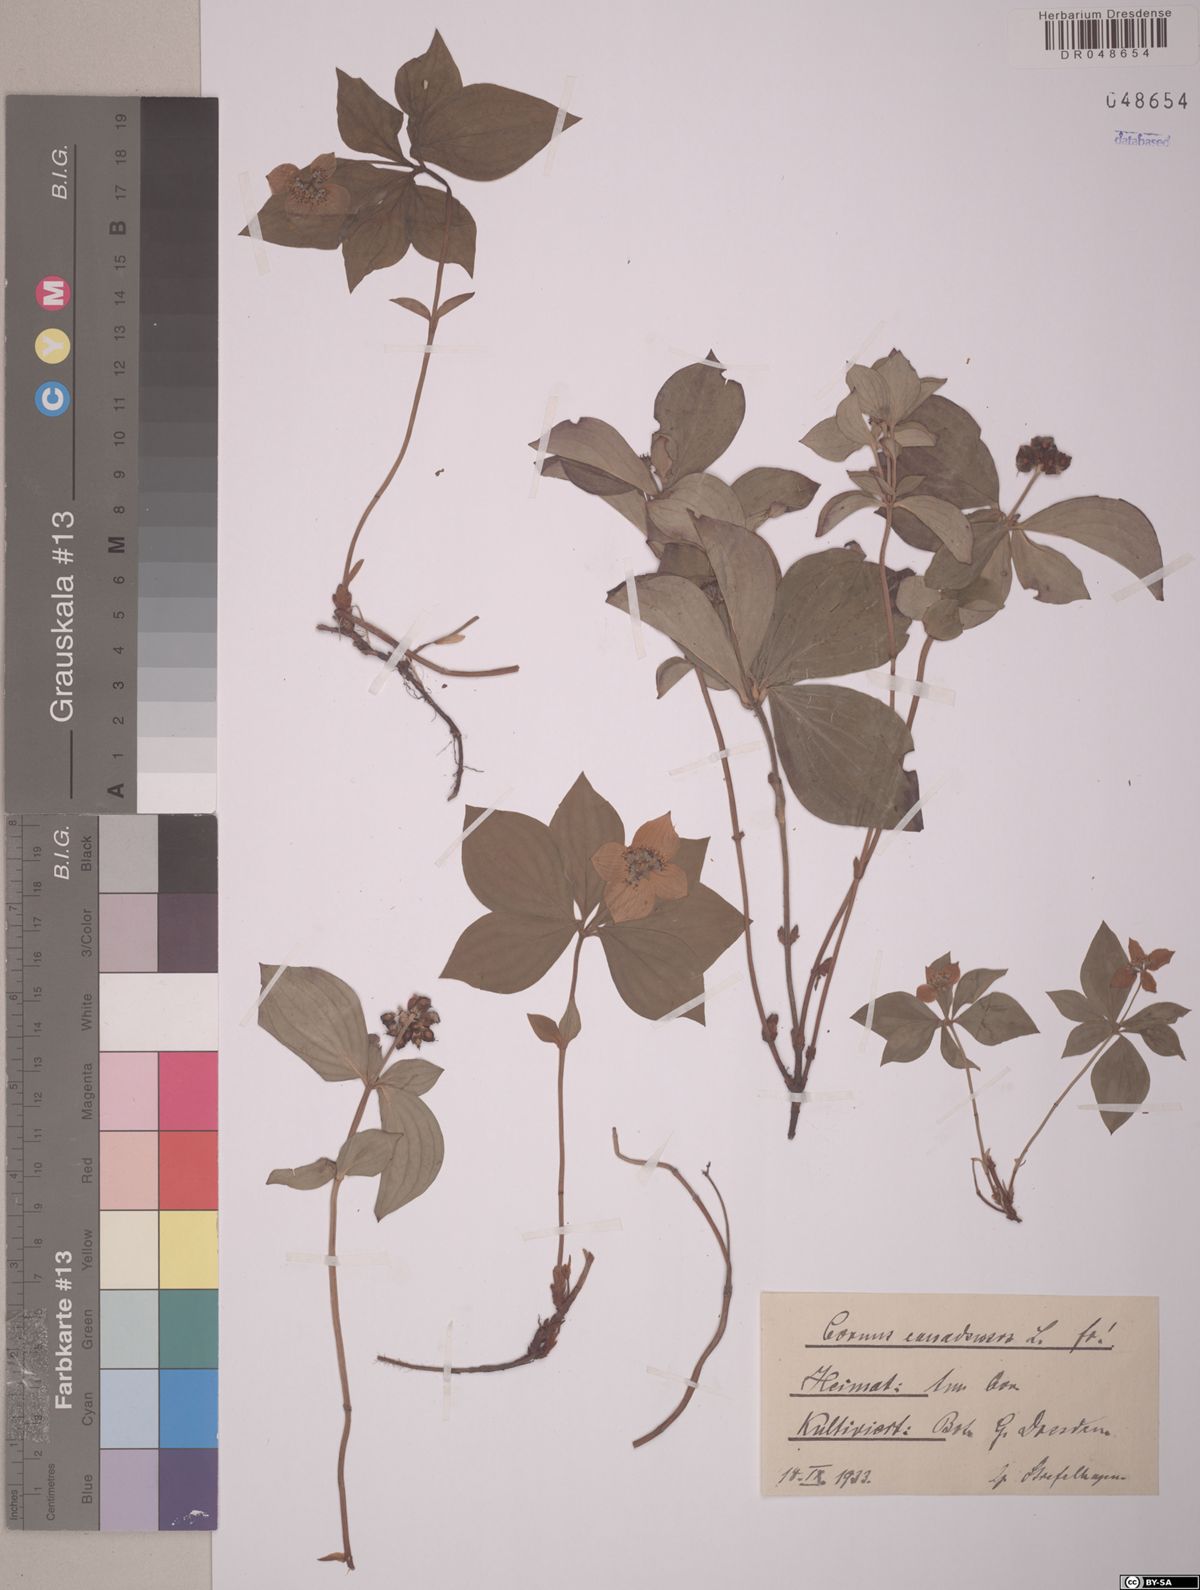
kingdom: Plantae
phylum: Tracheophyta
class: Magnoliopsida
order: Cornales
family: Cornaceae
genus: Cornus
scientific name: Cornus canadensis
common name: Creeping dogwood
